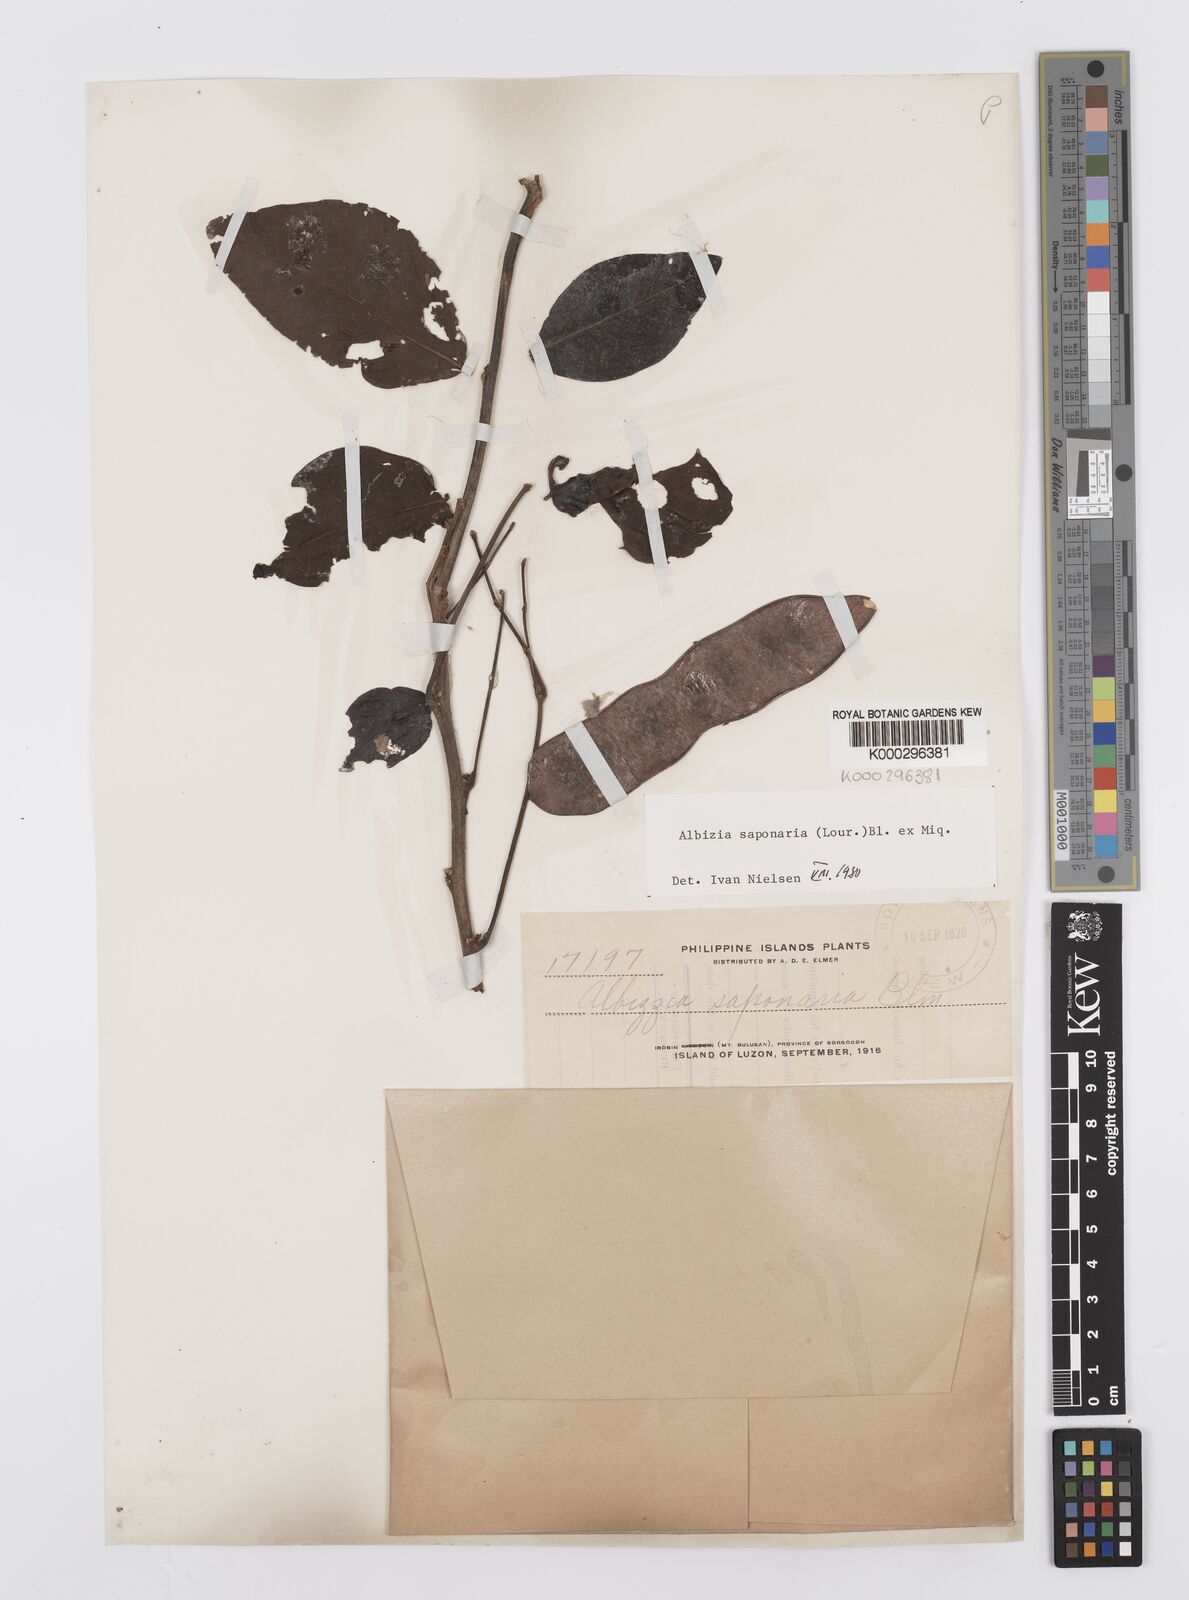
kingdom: Plantae
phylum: Tracheophyta
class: Magnoliopsida
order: Fabales
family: Fabaceae
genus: Albizia
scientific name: Albizia saponaria
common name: Whiteflower albizia
